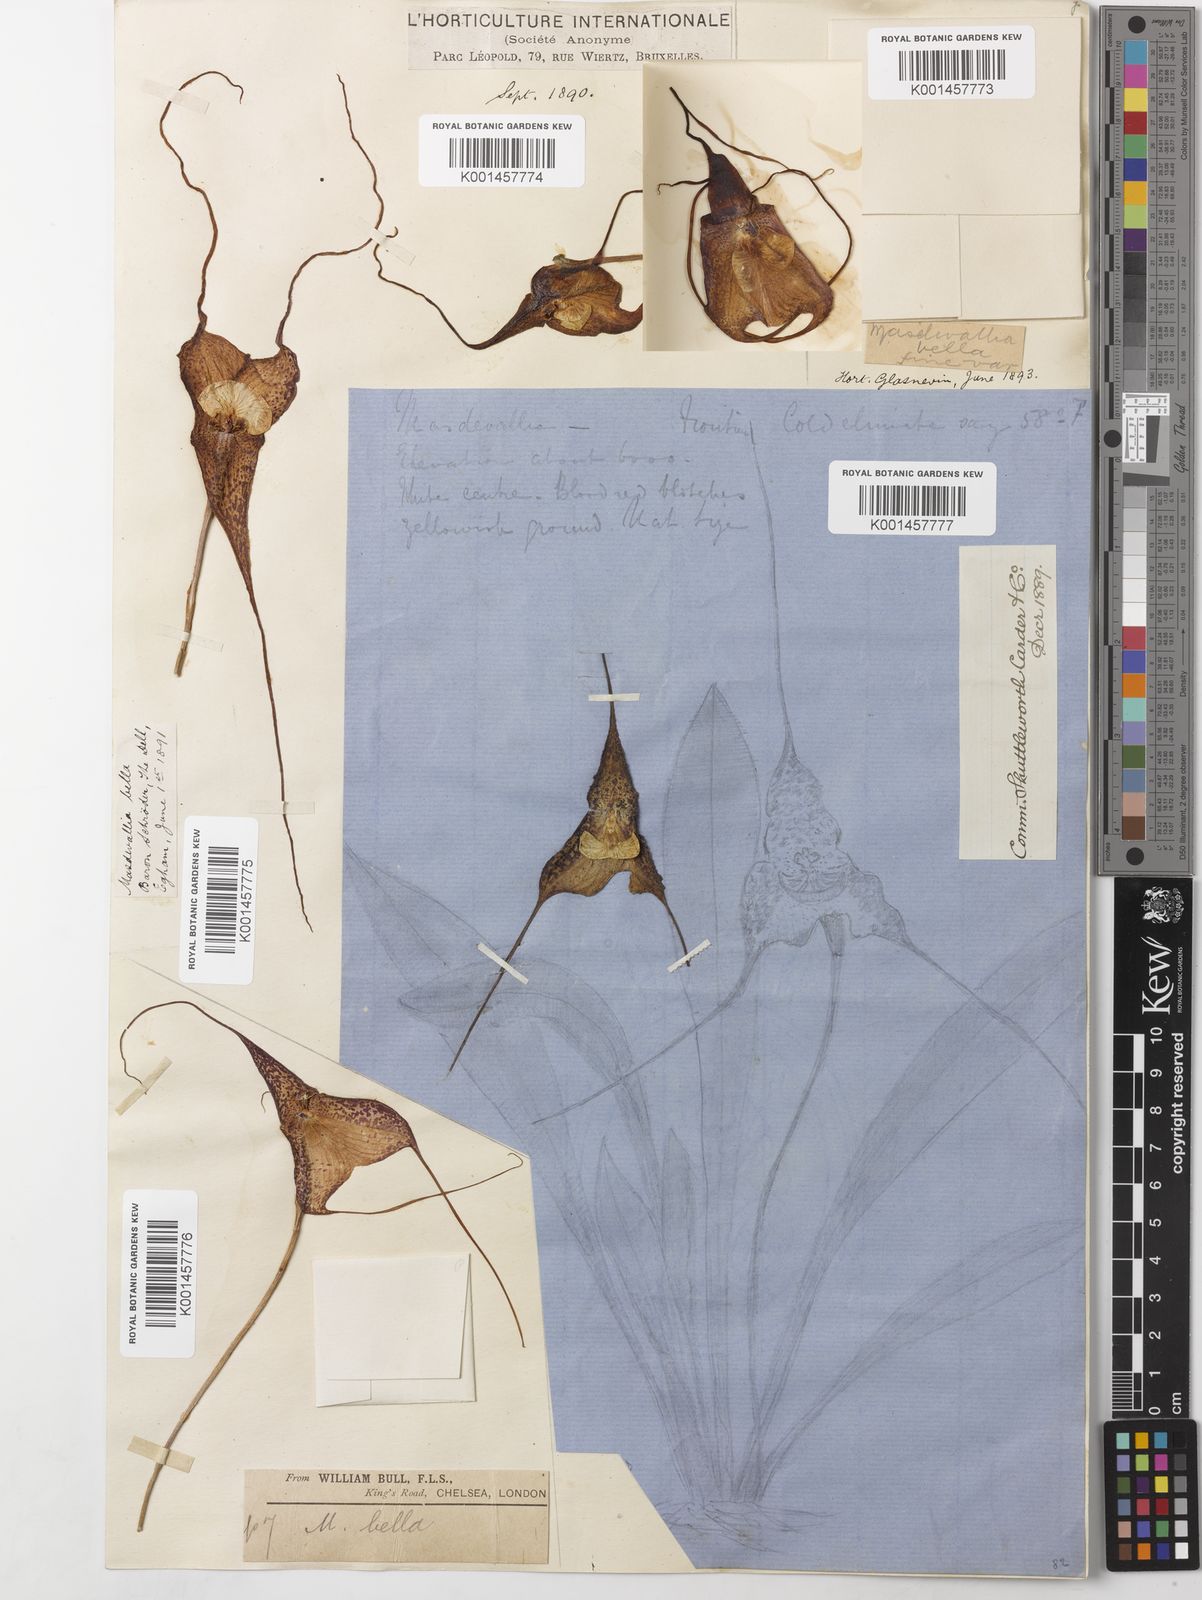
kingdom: Plantae
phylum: Tracheophyta
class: Liliopsida
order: Asparagales
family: Orchidaceae
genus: Dracula
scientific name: Dracula bella
